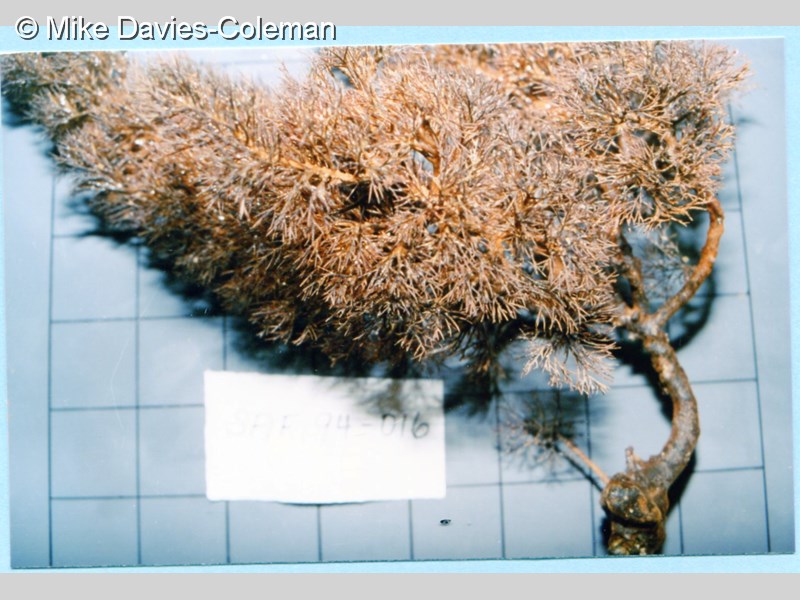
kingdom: Animalia
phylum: Cnidaria
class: Anthozoa
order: Antipatharia
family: Antipathidae
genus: Antipathes
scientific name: Antipathes
